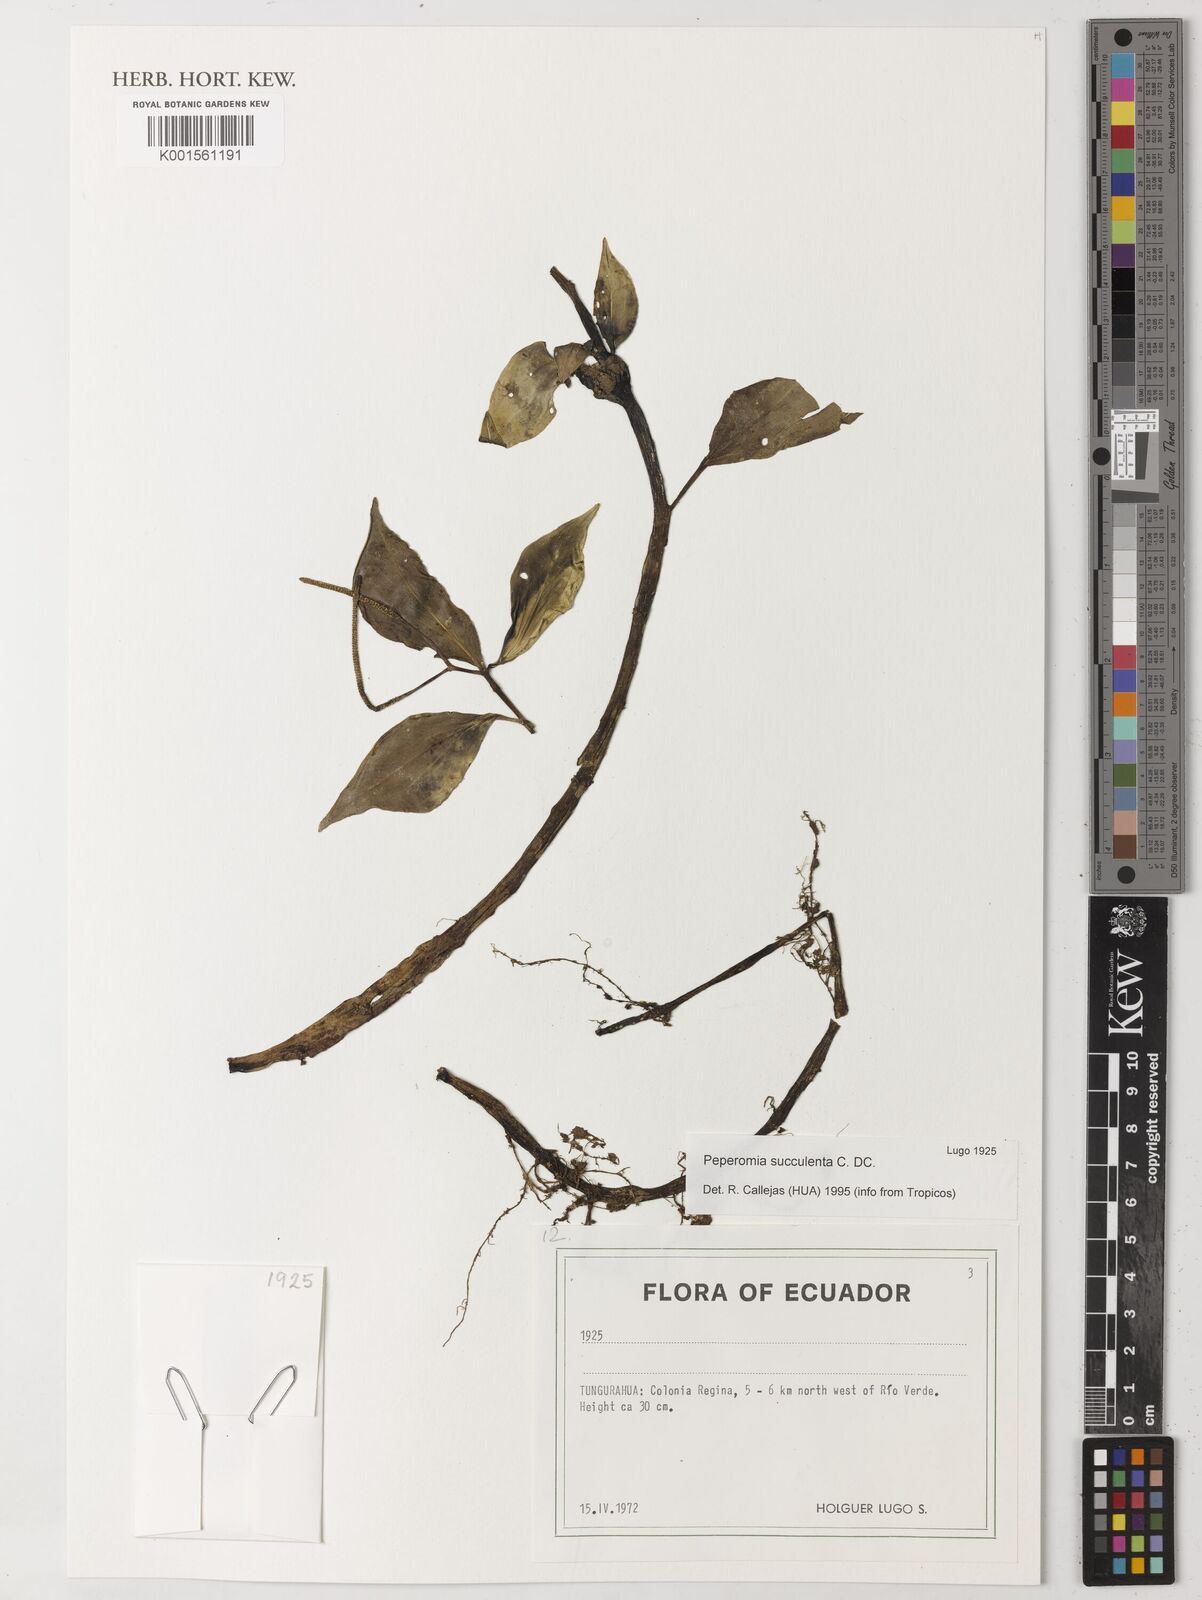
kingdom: Plantae
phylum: Tracheophyta
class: Magnoliopsida
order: Piperales
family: Piperaceae
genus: Peperomia
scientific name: Peperomia succulenta
